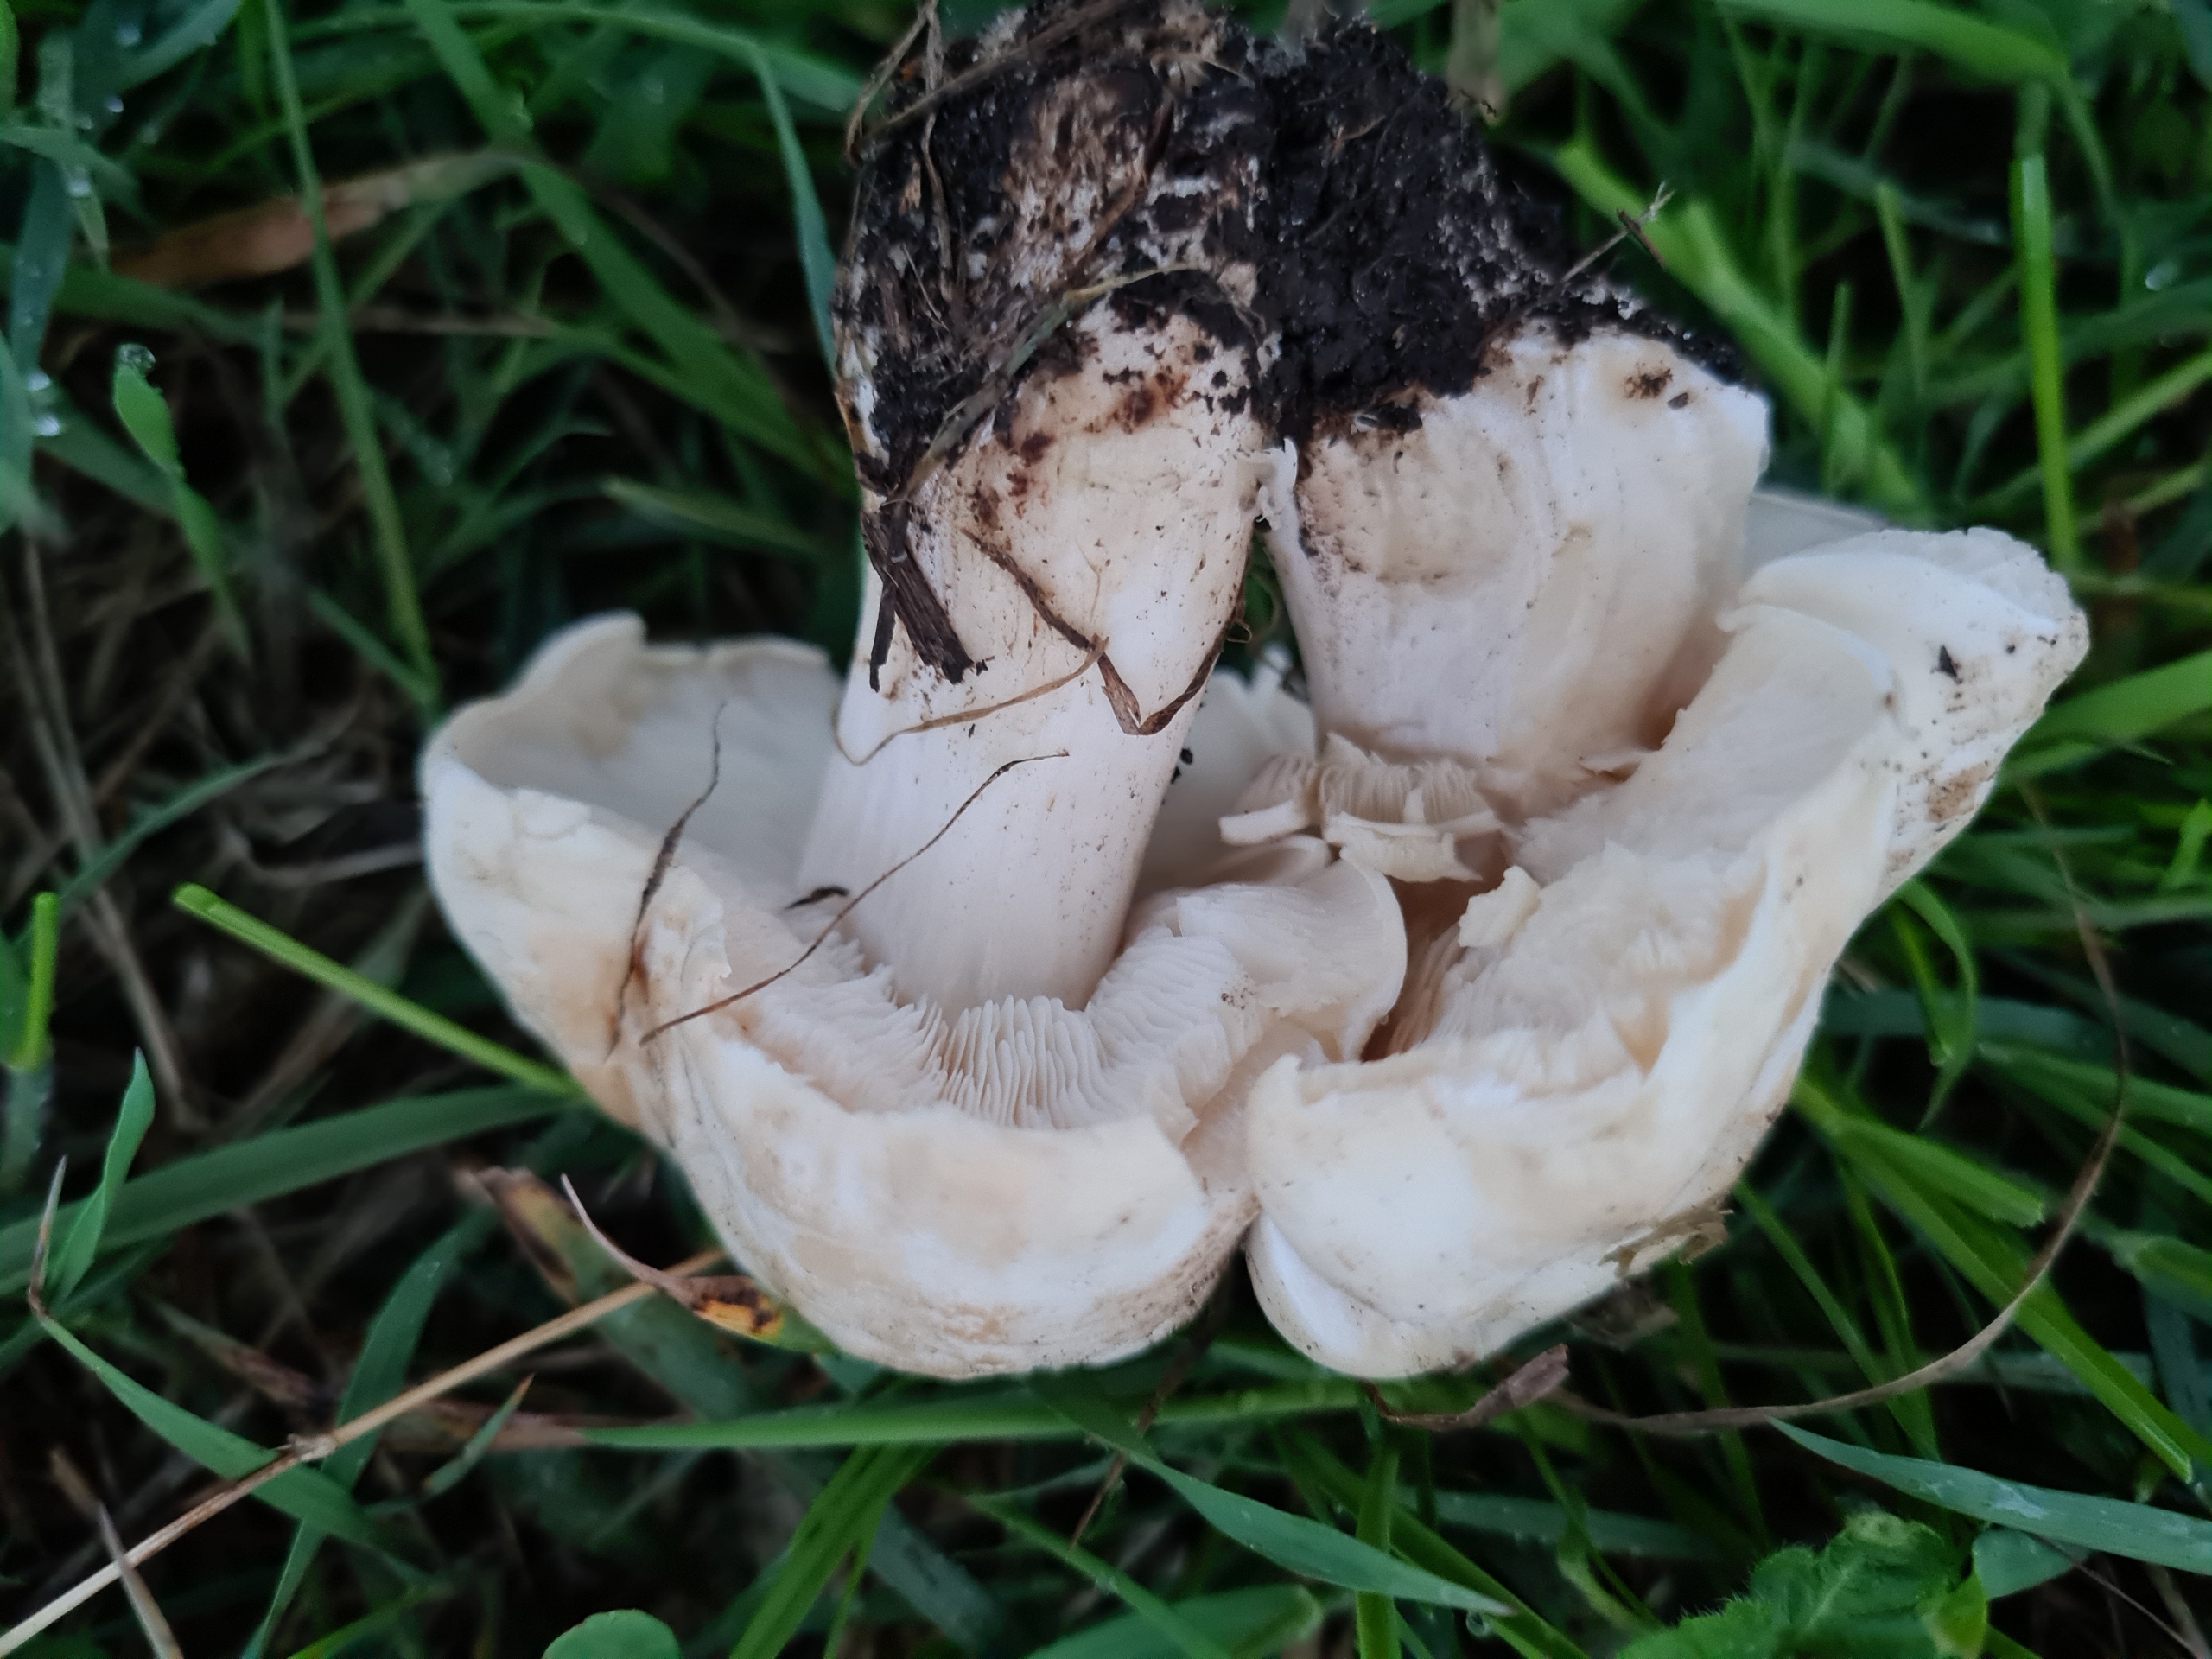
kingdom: Fungi
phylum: Basidiomycota
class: Agaricomycetes
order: Agaricales
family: Lyophyllaceae
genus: Calocybe
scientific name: Calocybe gambosa
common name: Vårmusseron
